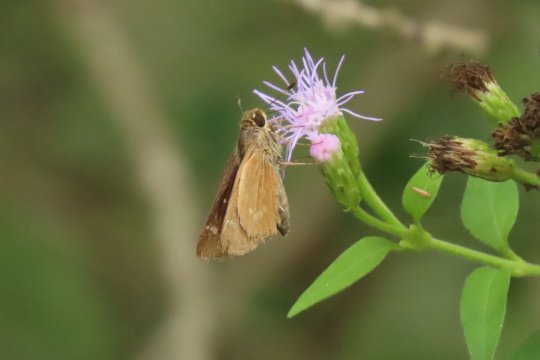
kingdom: Animalia
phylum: Arthropoda
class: Insecta
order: Lepidoptera
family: Hesperiidae
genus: Mellana
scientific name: Mellana eulogius
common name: Common Mellana
